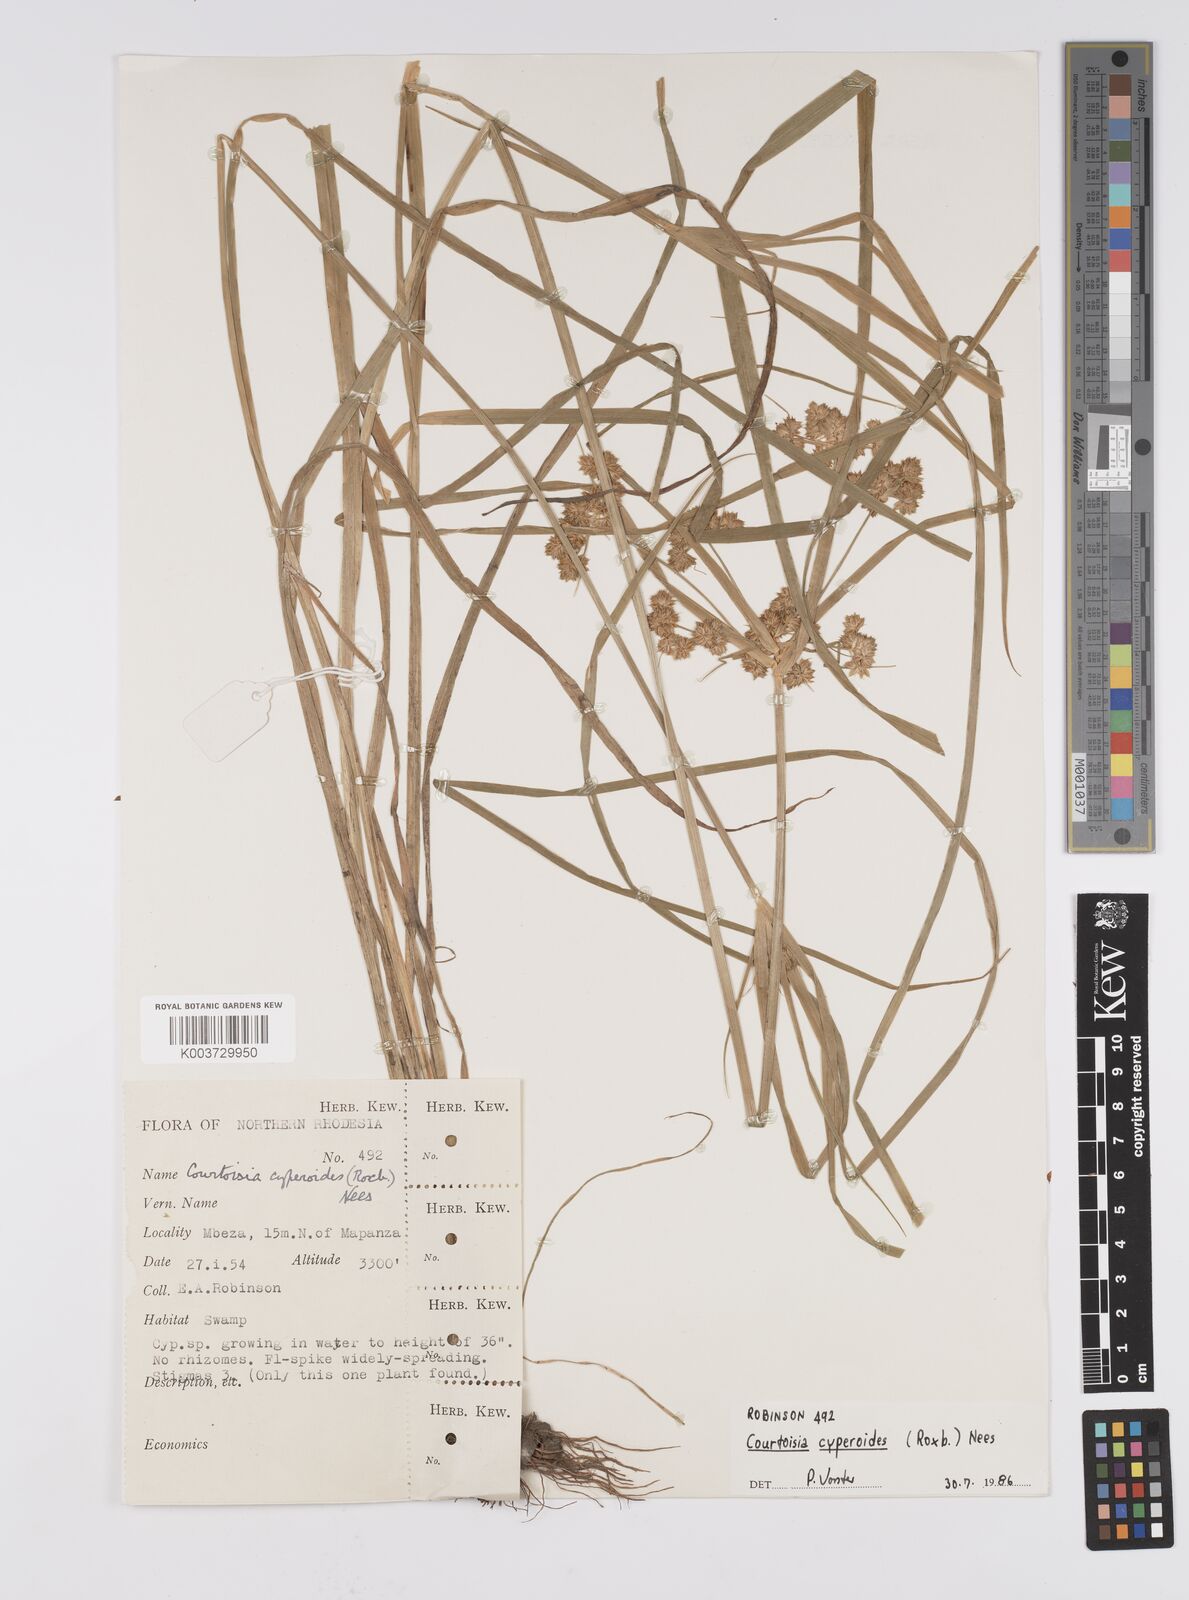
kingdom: Plantae
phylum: Tracheophyta
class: Liliopsida
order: Poales
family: Cyperaceae
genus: Cyperus
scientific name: Cyperus cyperoides
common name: Pacific island flat sedge
